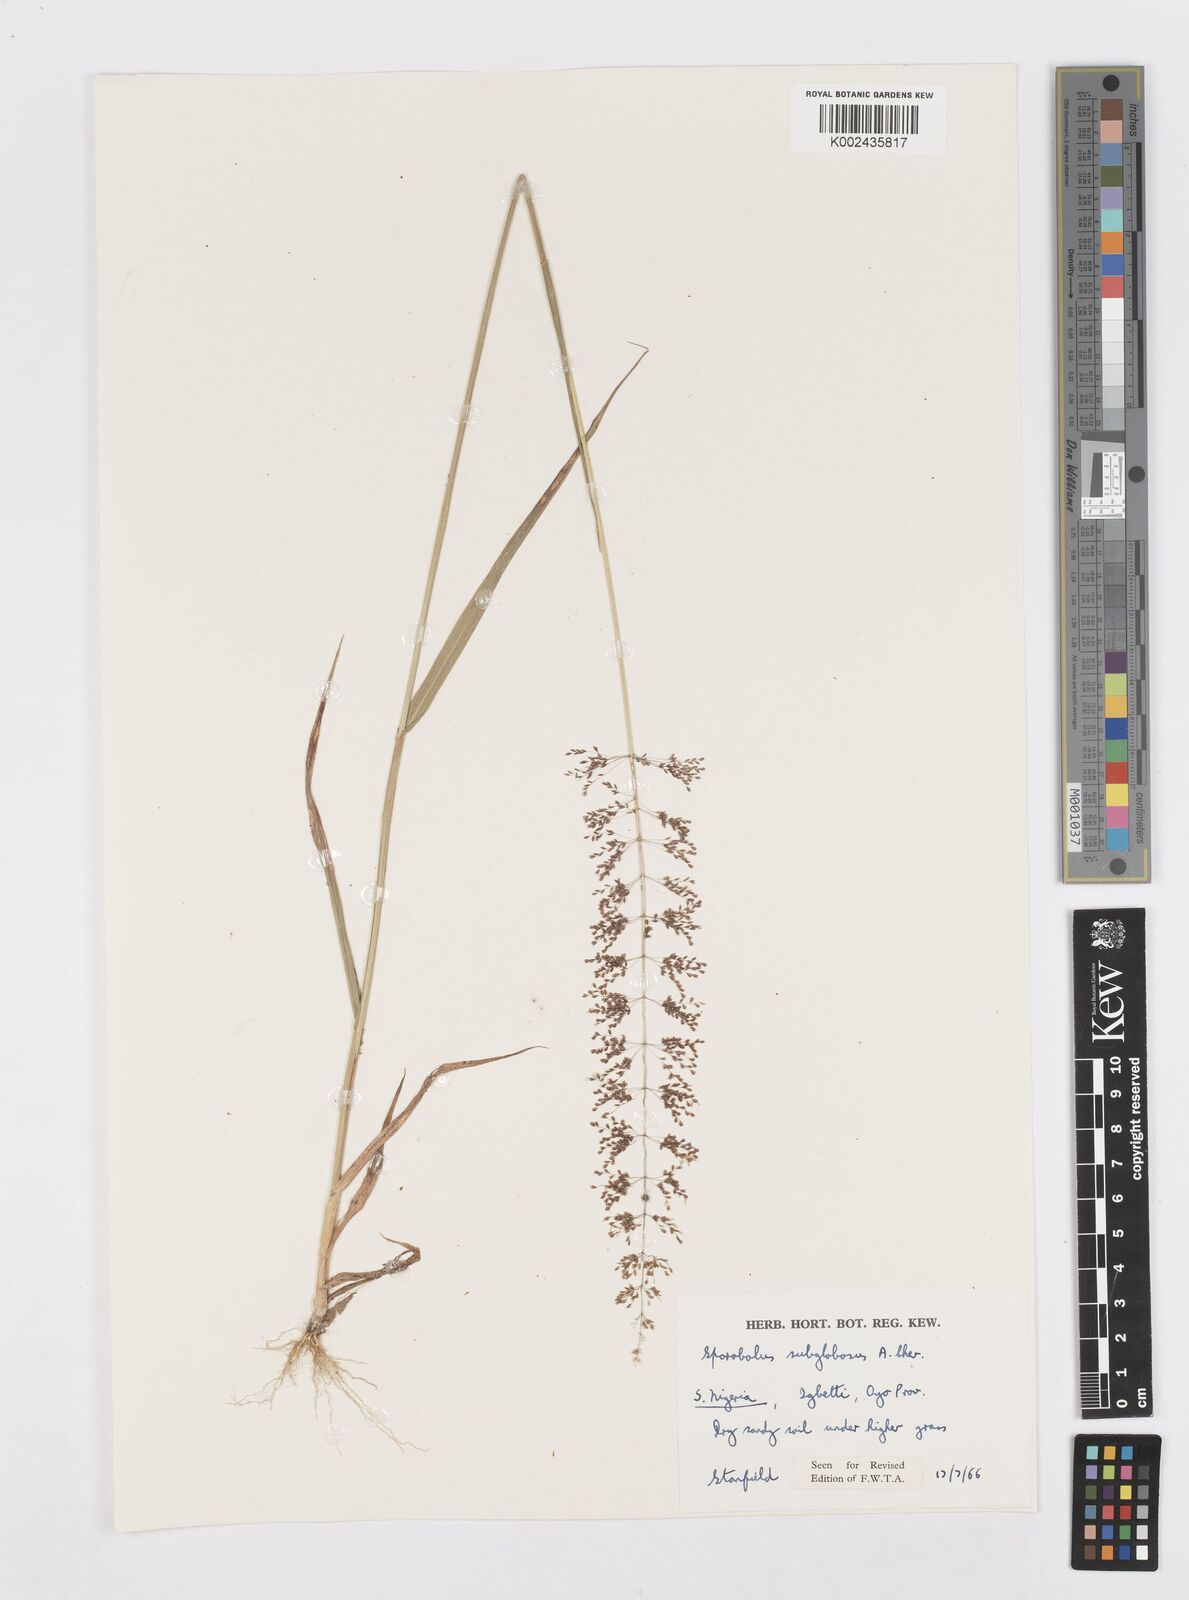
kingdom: Plantae
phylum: Tracheophyta
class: Liliopsida
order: Poales
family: Poaceae
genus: Sporobolus
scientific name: Sporobolus subglobosus
